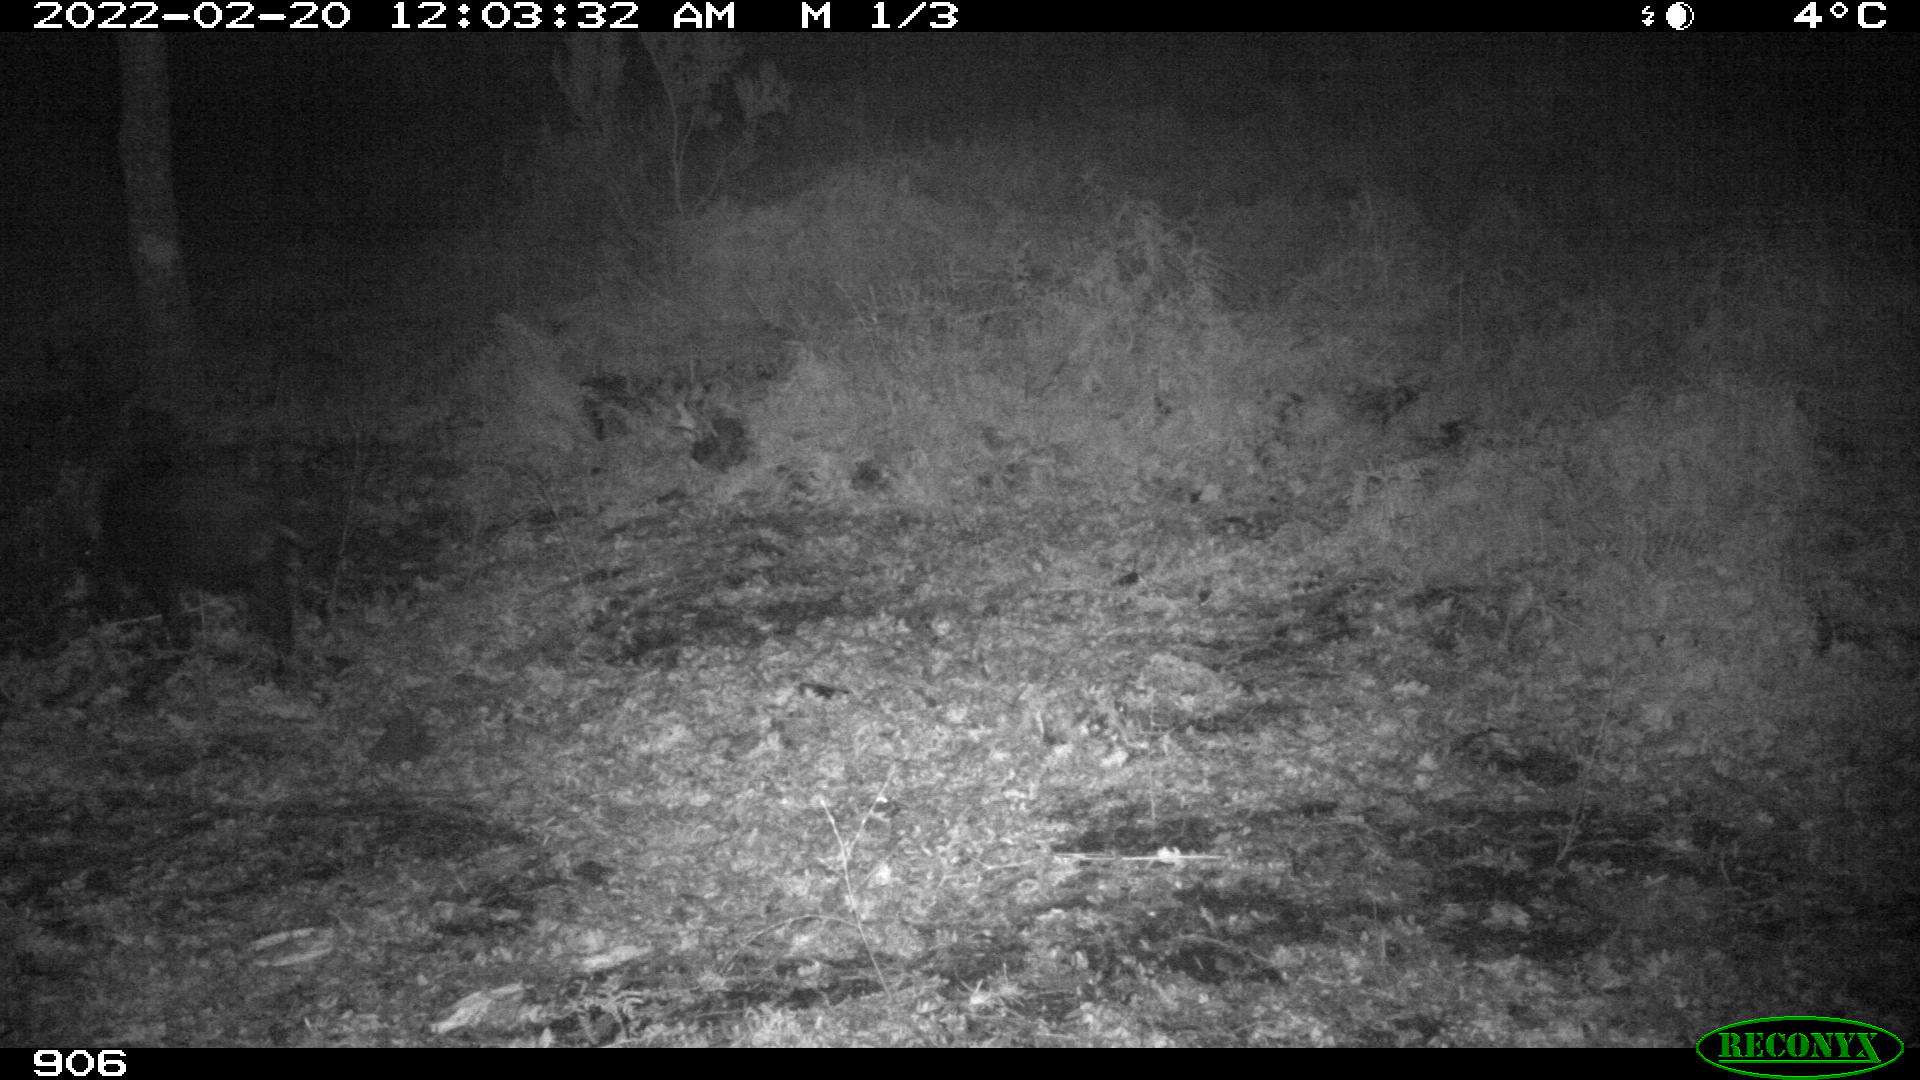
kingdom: Animalia
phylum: Chordata
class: Mammalia
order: Artiodactyla
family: Suidae
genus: Sus
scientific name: Sus scrofa
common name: Wild boar
